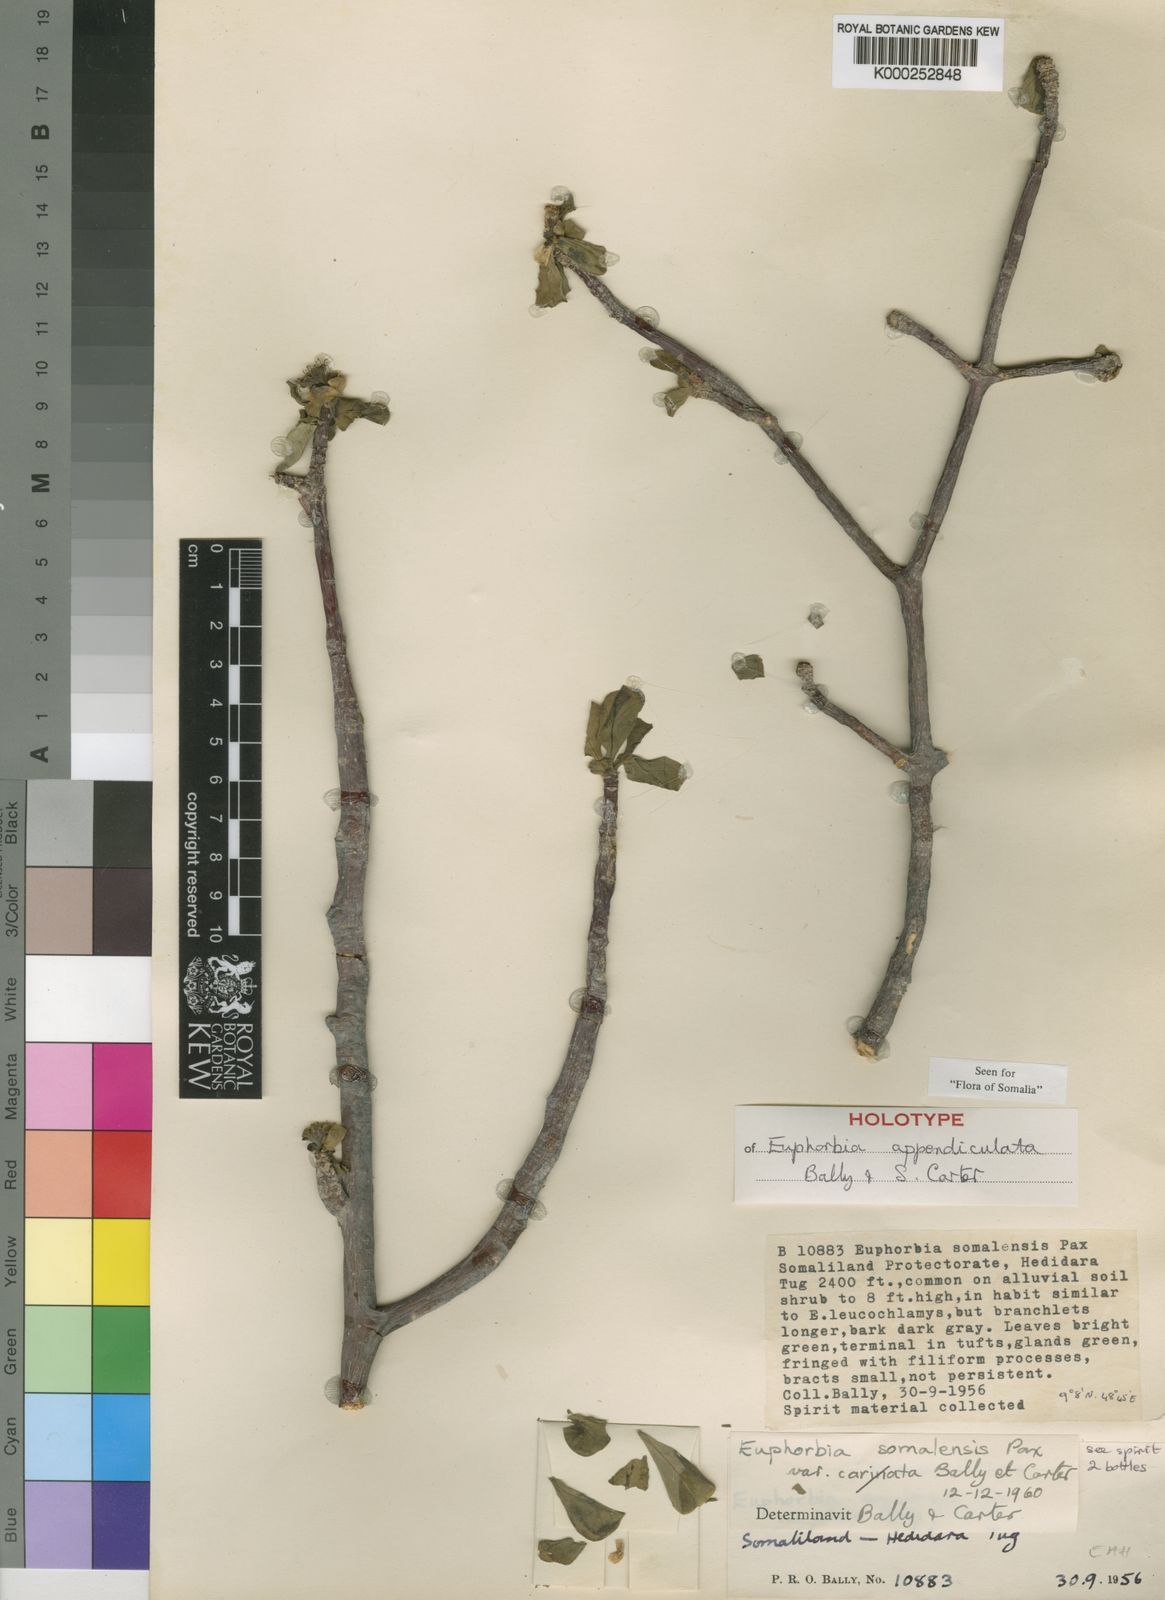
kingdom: Plantae
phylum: Tracheophyta
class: Magnoliopsida
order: Malpighiales
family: Euphorbiaceae
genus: Euphorbia
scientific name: Euphorbia appendiculata
